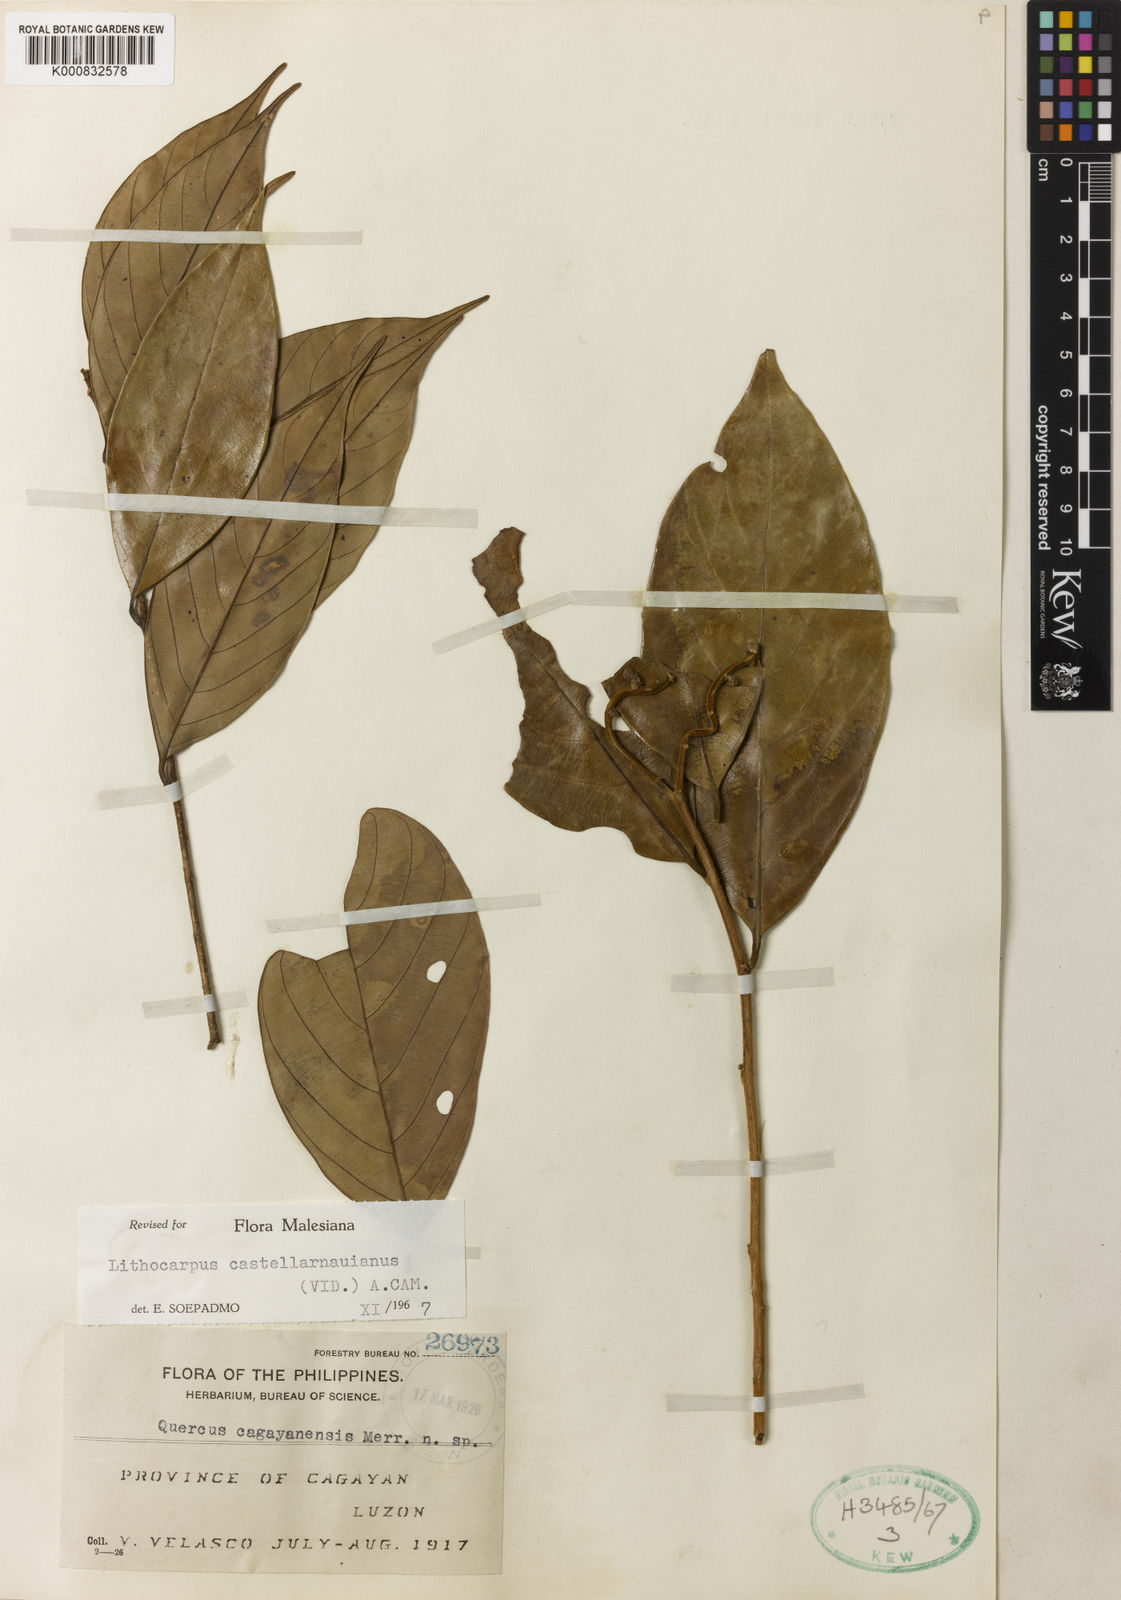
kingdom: Plantae
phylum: Tracheophyta
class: Magnoliopsida
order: Fagales
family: Fagaceae
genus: Lithocarpus
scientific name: Lithocarpus castellarnauianus
